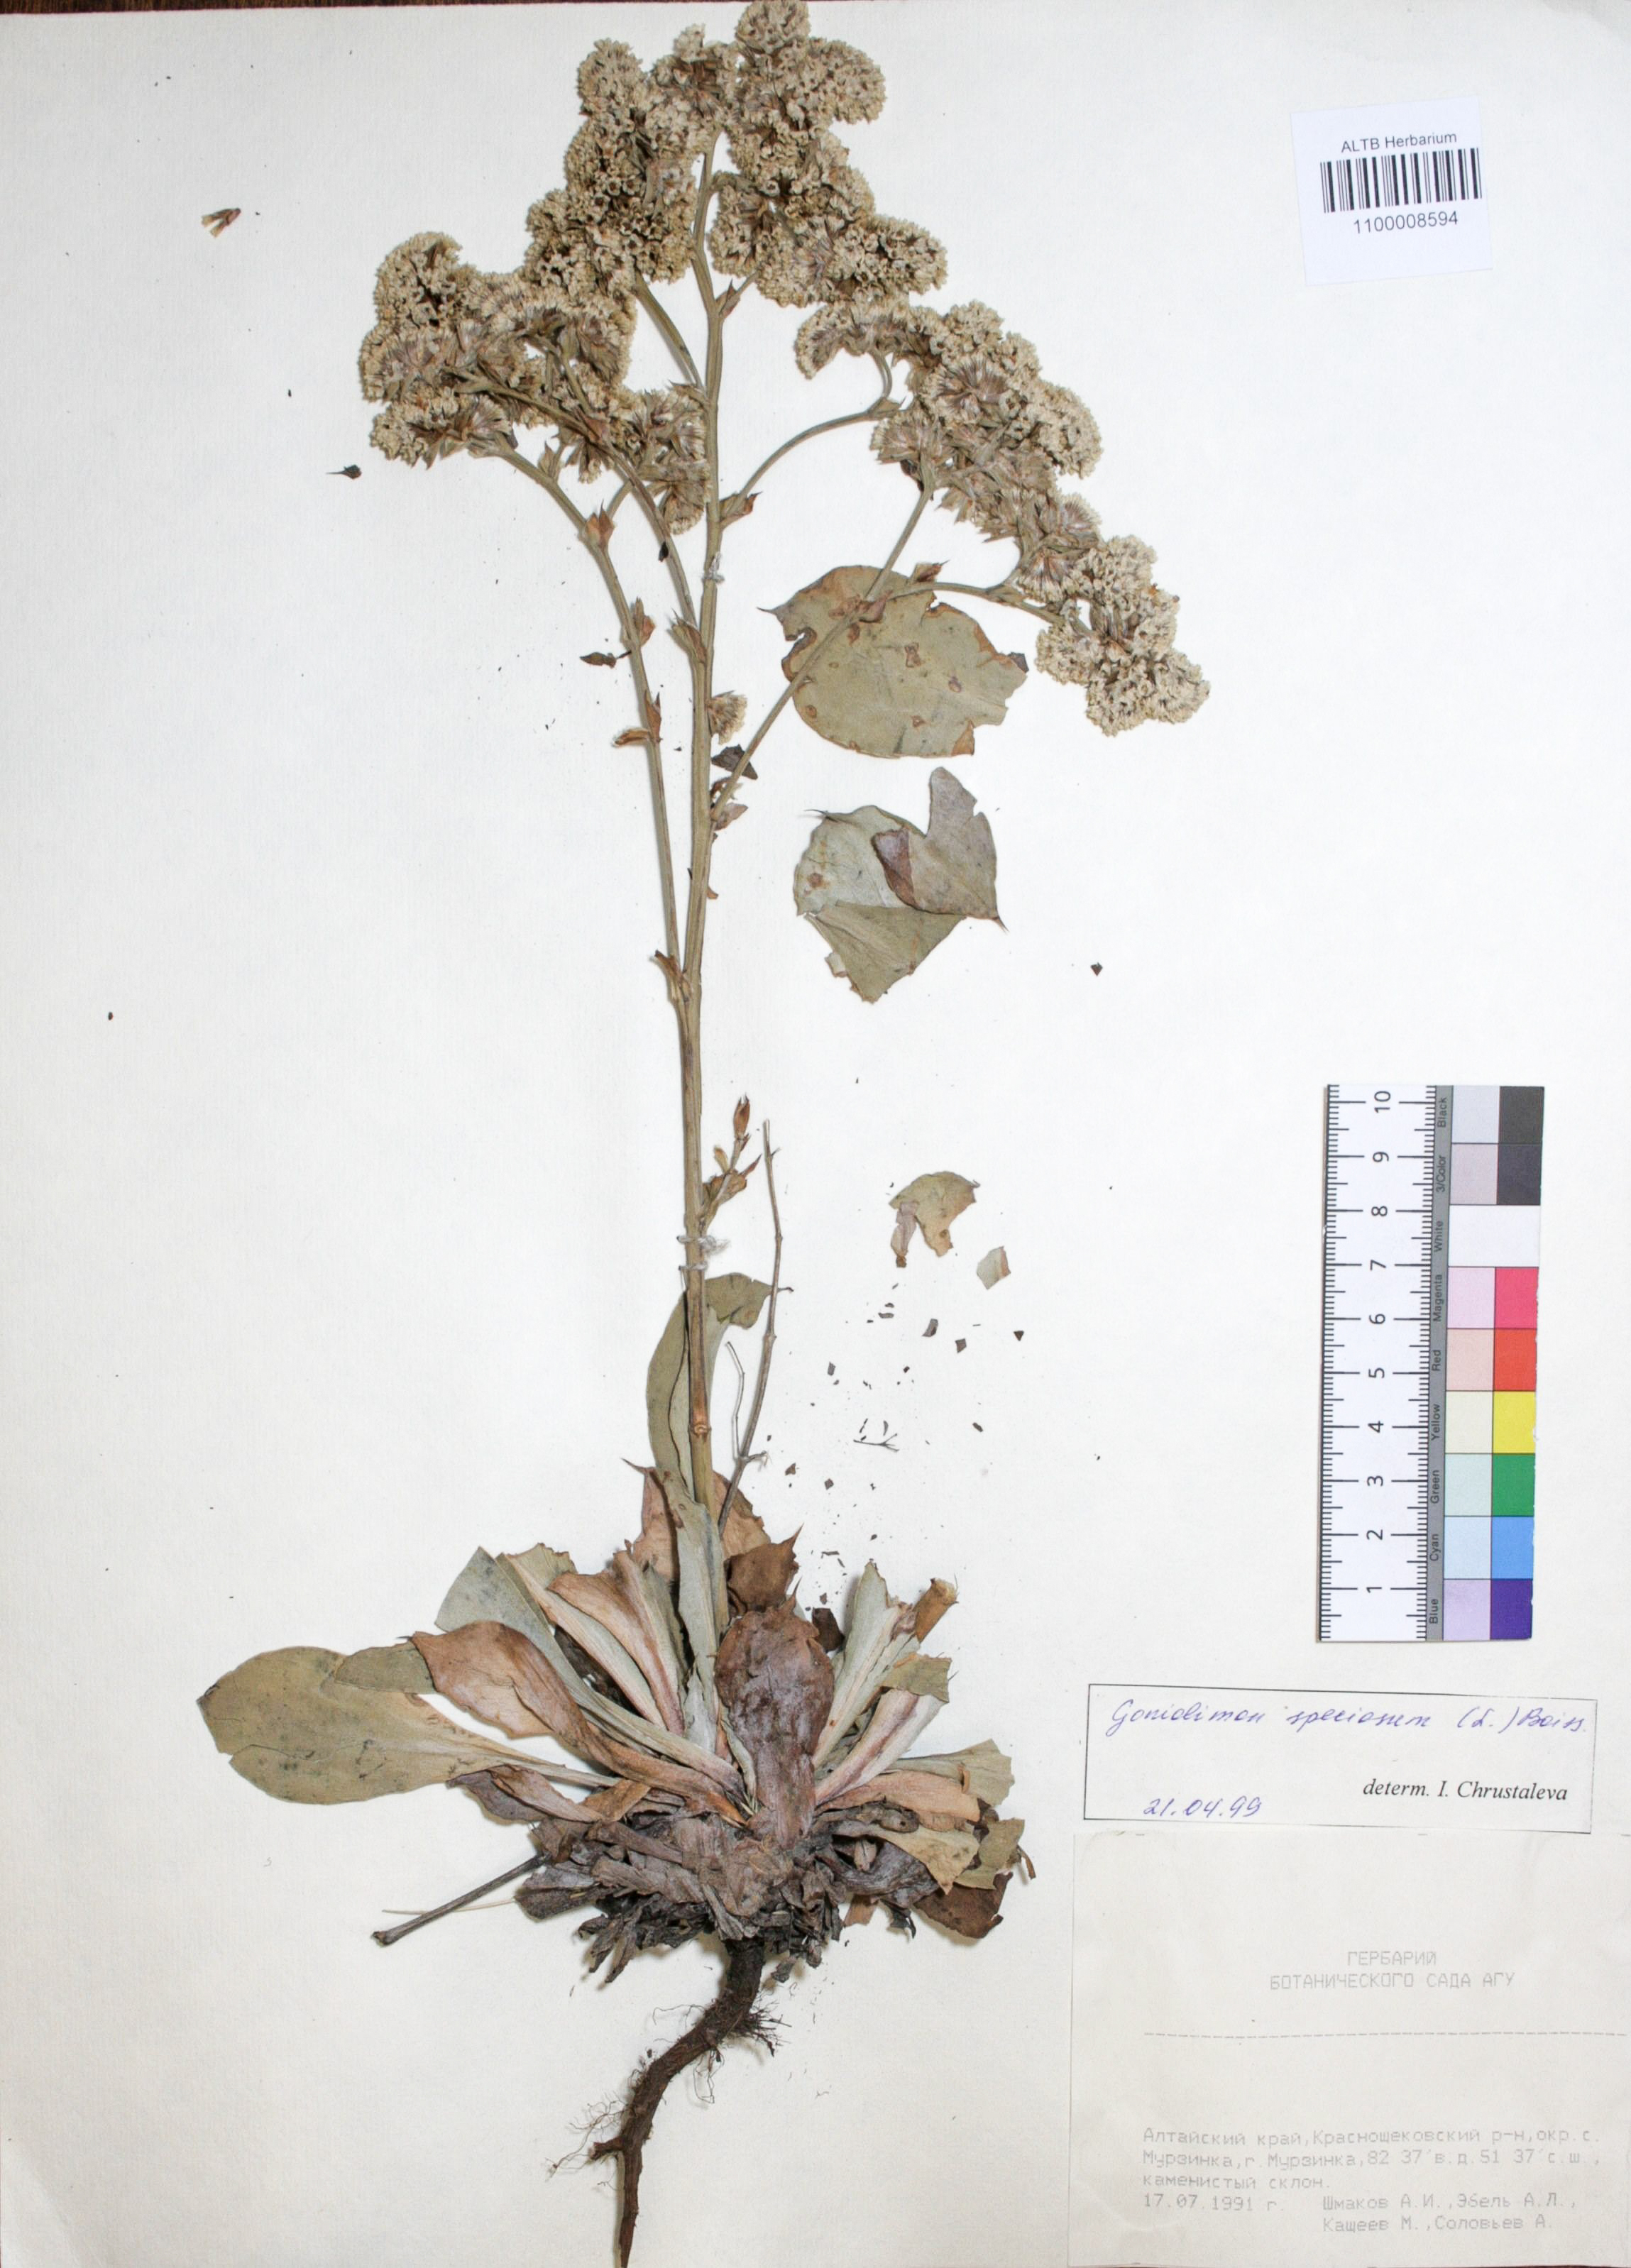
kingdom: Plantae
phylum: Tracheophyta
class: Magnoliopsida
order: Caryophyllales
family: Plumbaginaceae
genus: Goniolimon
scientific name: Goniolimon speciosum
